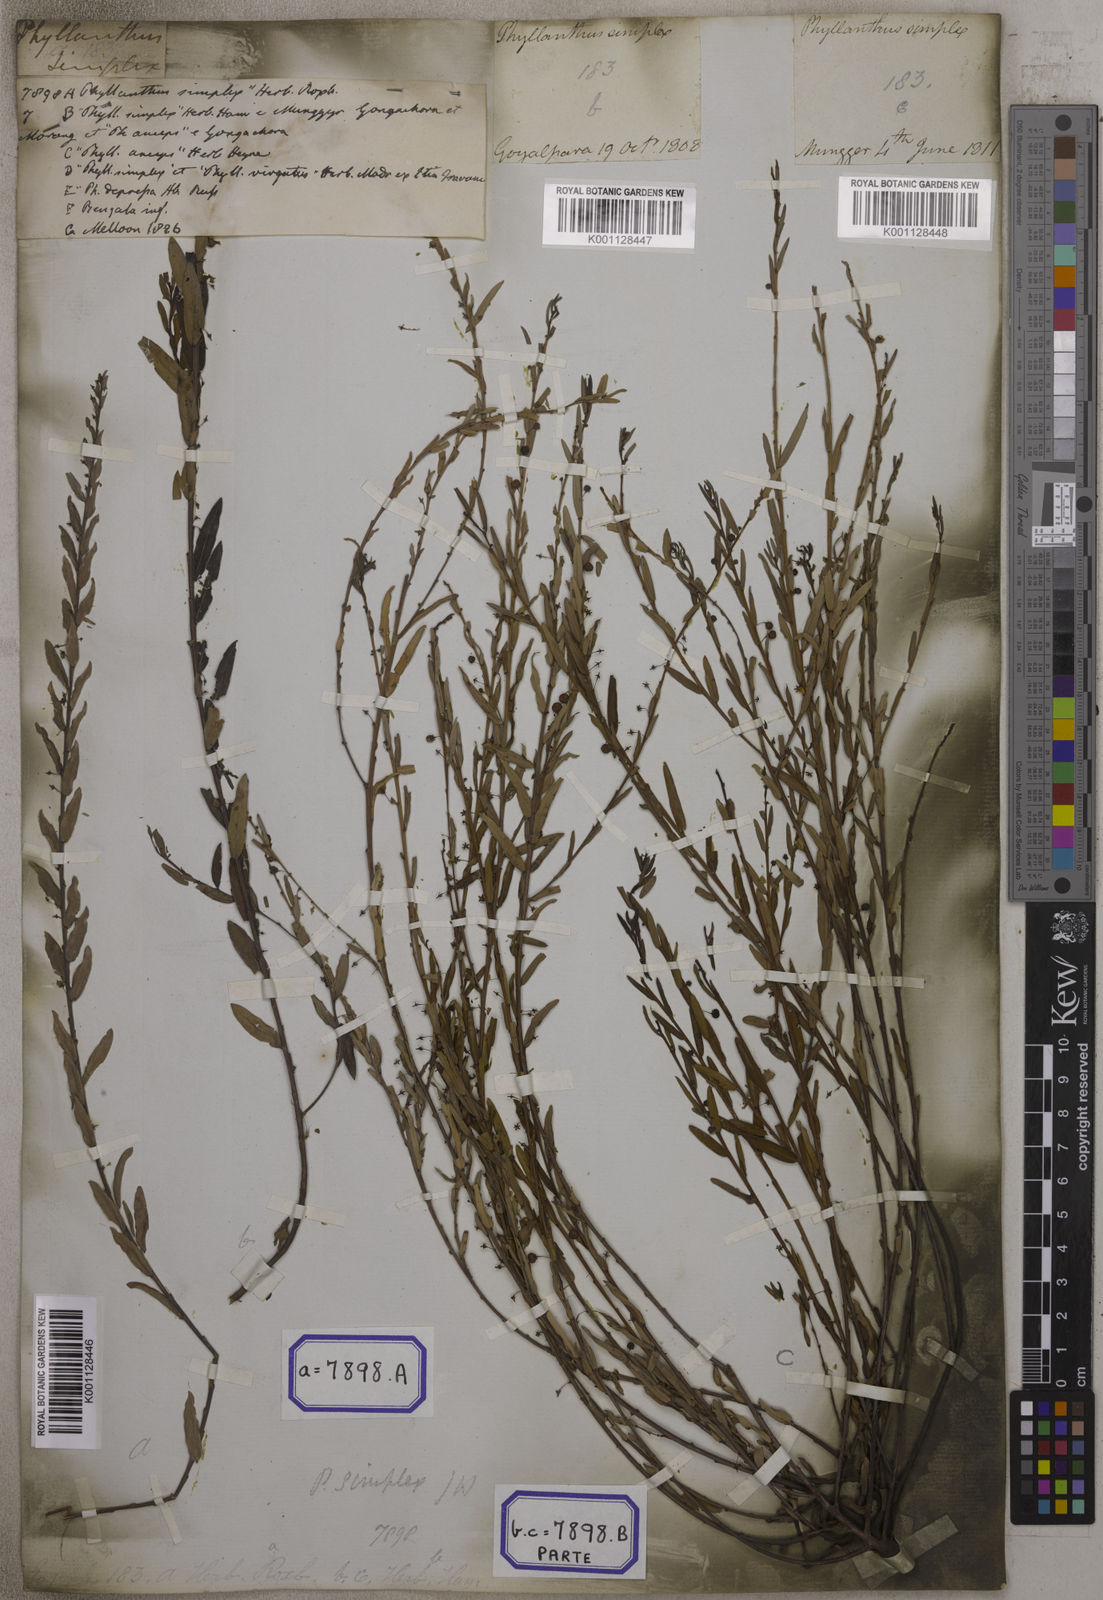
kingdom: Plantae
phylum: Tracheophyta
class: Magnoliopsida
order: Malpighiales
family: Euphorbiaceae
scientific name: Euphorbiaceae
